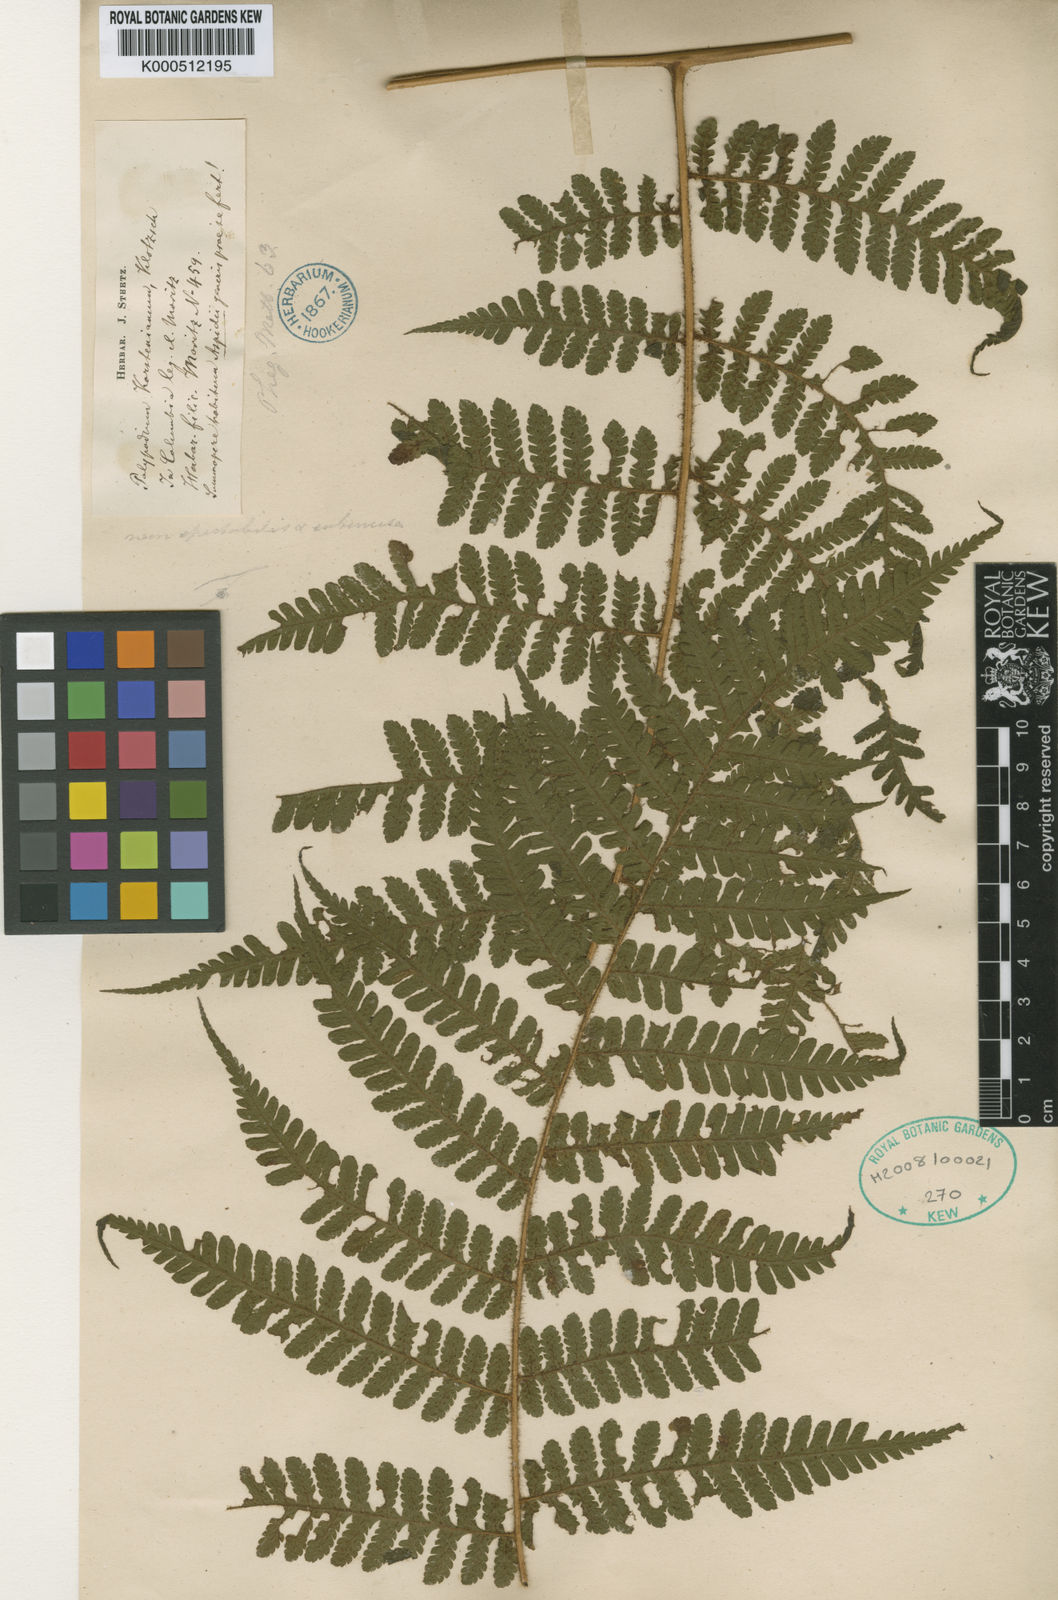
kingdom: Plantae
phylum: Tracheophyta
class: Polypodiopsida
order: Polypodiales
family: Dryopteridaceae
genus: Megalastrum
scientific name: Megalastrum pulverulentum
